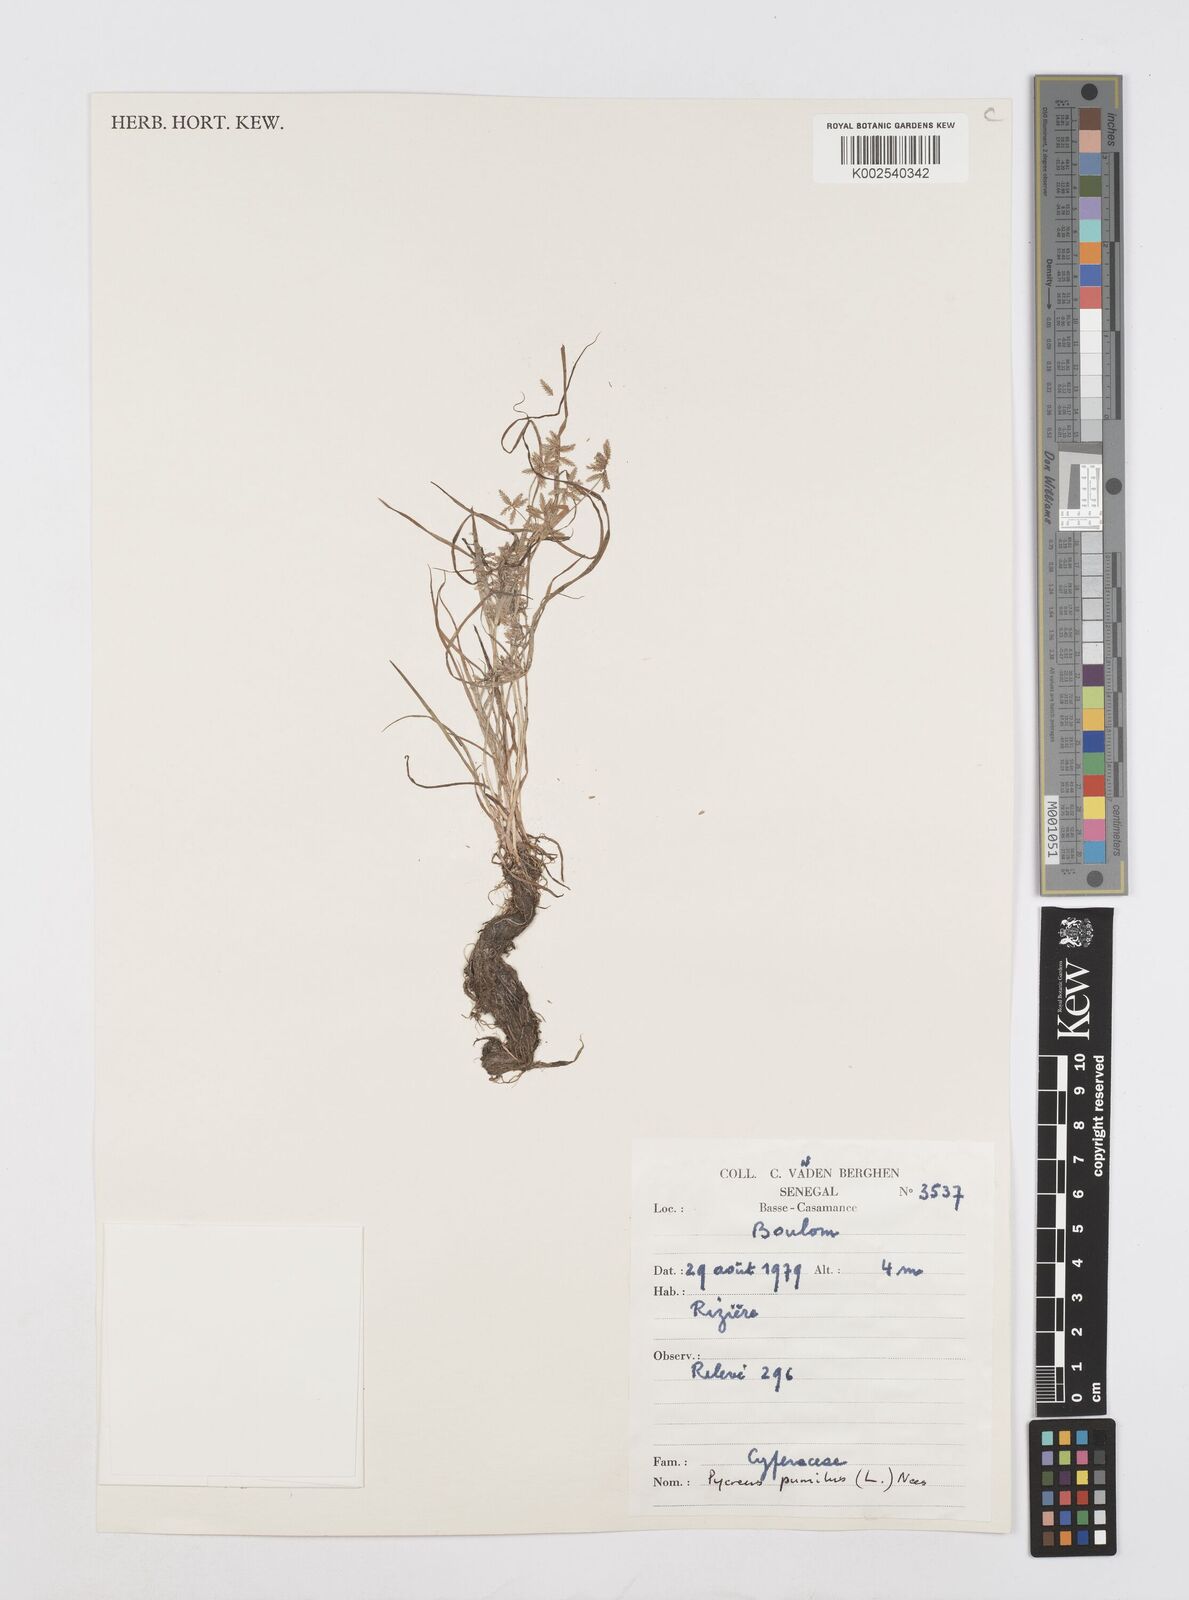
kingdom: Plantae
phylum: Tracheophyta
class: Liliopsida
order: Poales
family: Cyperaceae
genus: Cyperus
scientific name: Cyperus pumilus
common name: Low flatsedge
